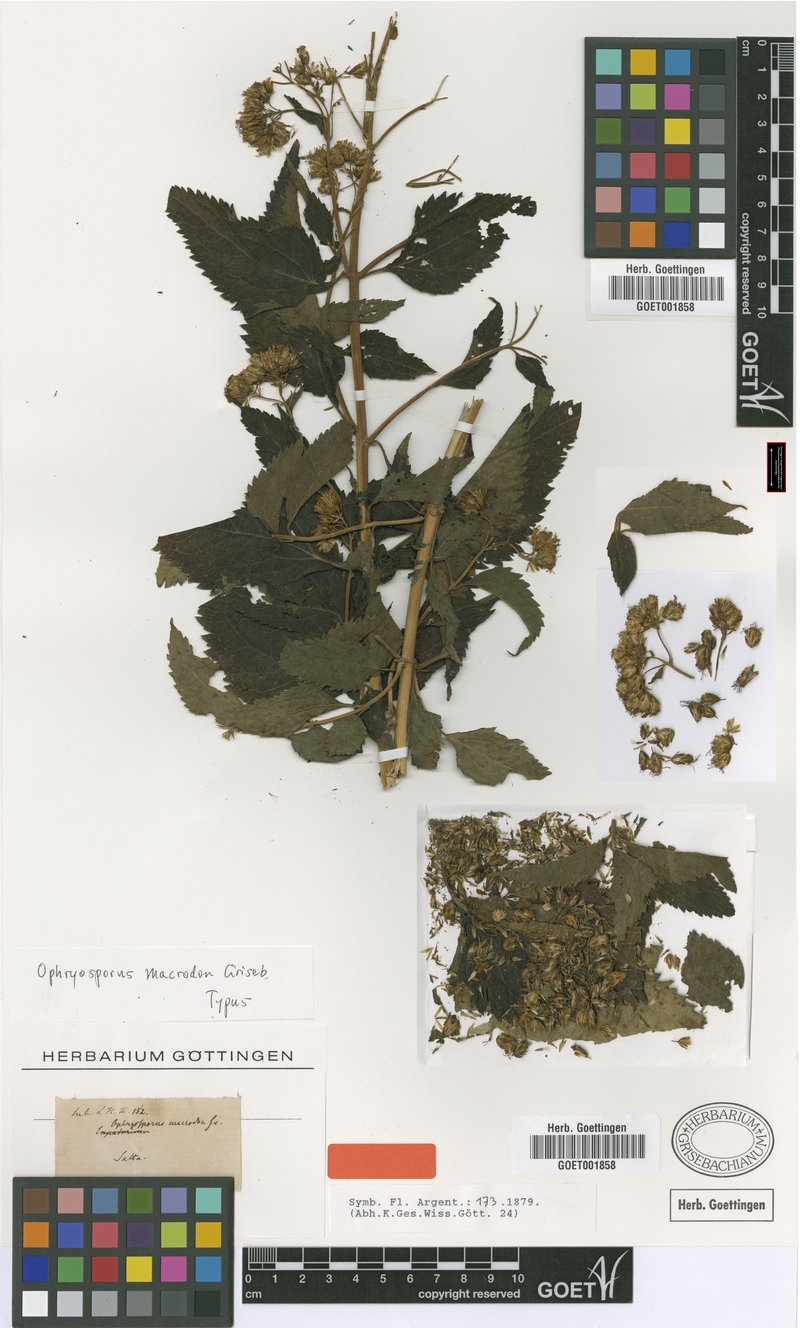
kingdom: Plantae
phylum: Tracheophyta
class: Magnoliopsida
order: Asterales
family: Asteraceae
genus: Ophryosporus
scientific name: Ophryosporus macrodon
